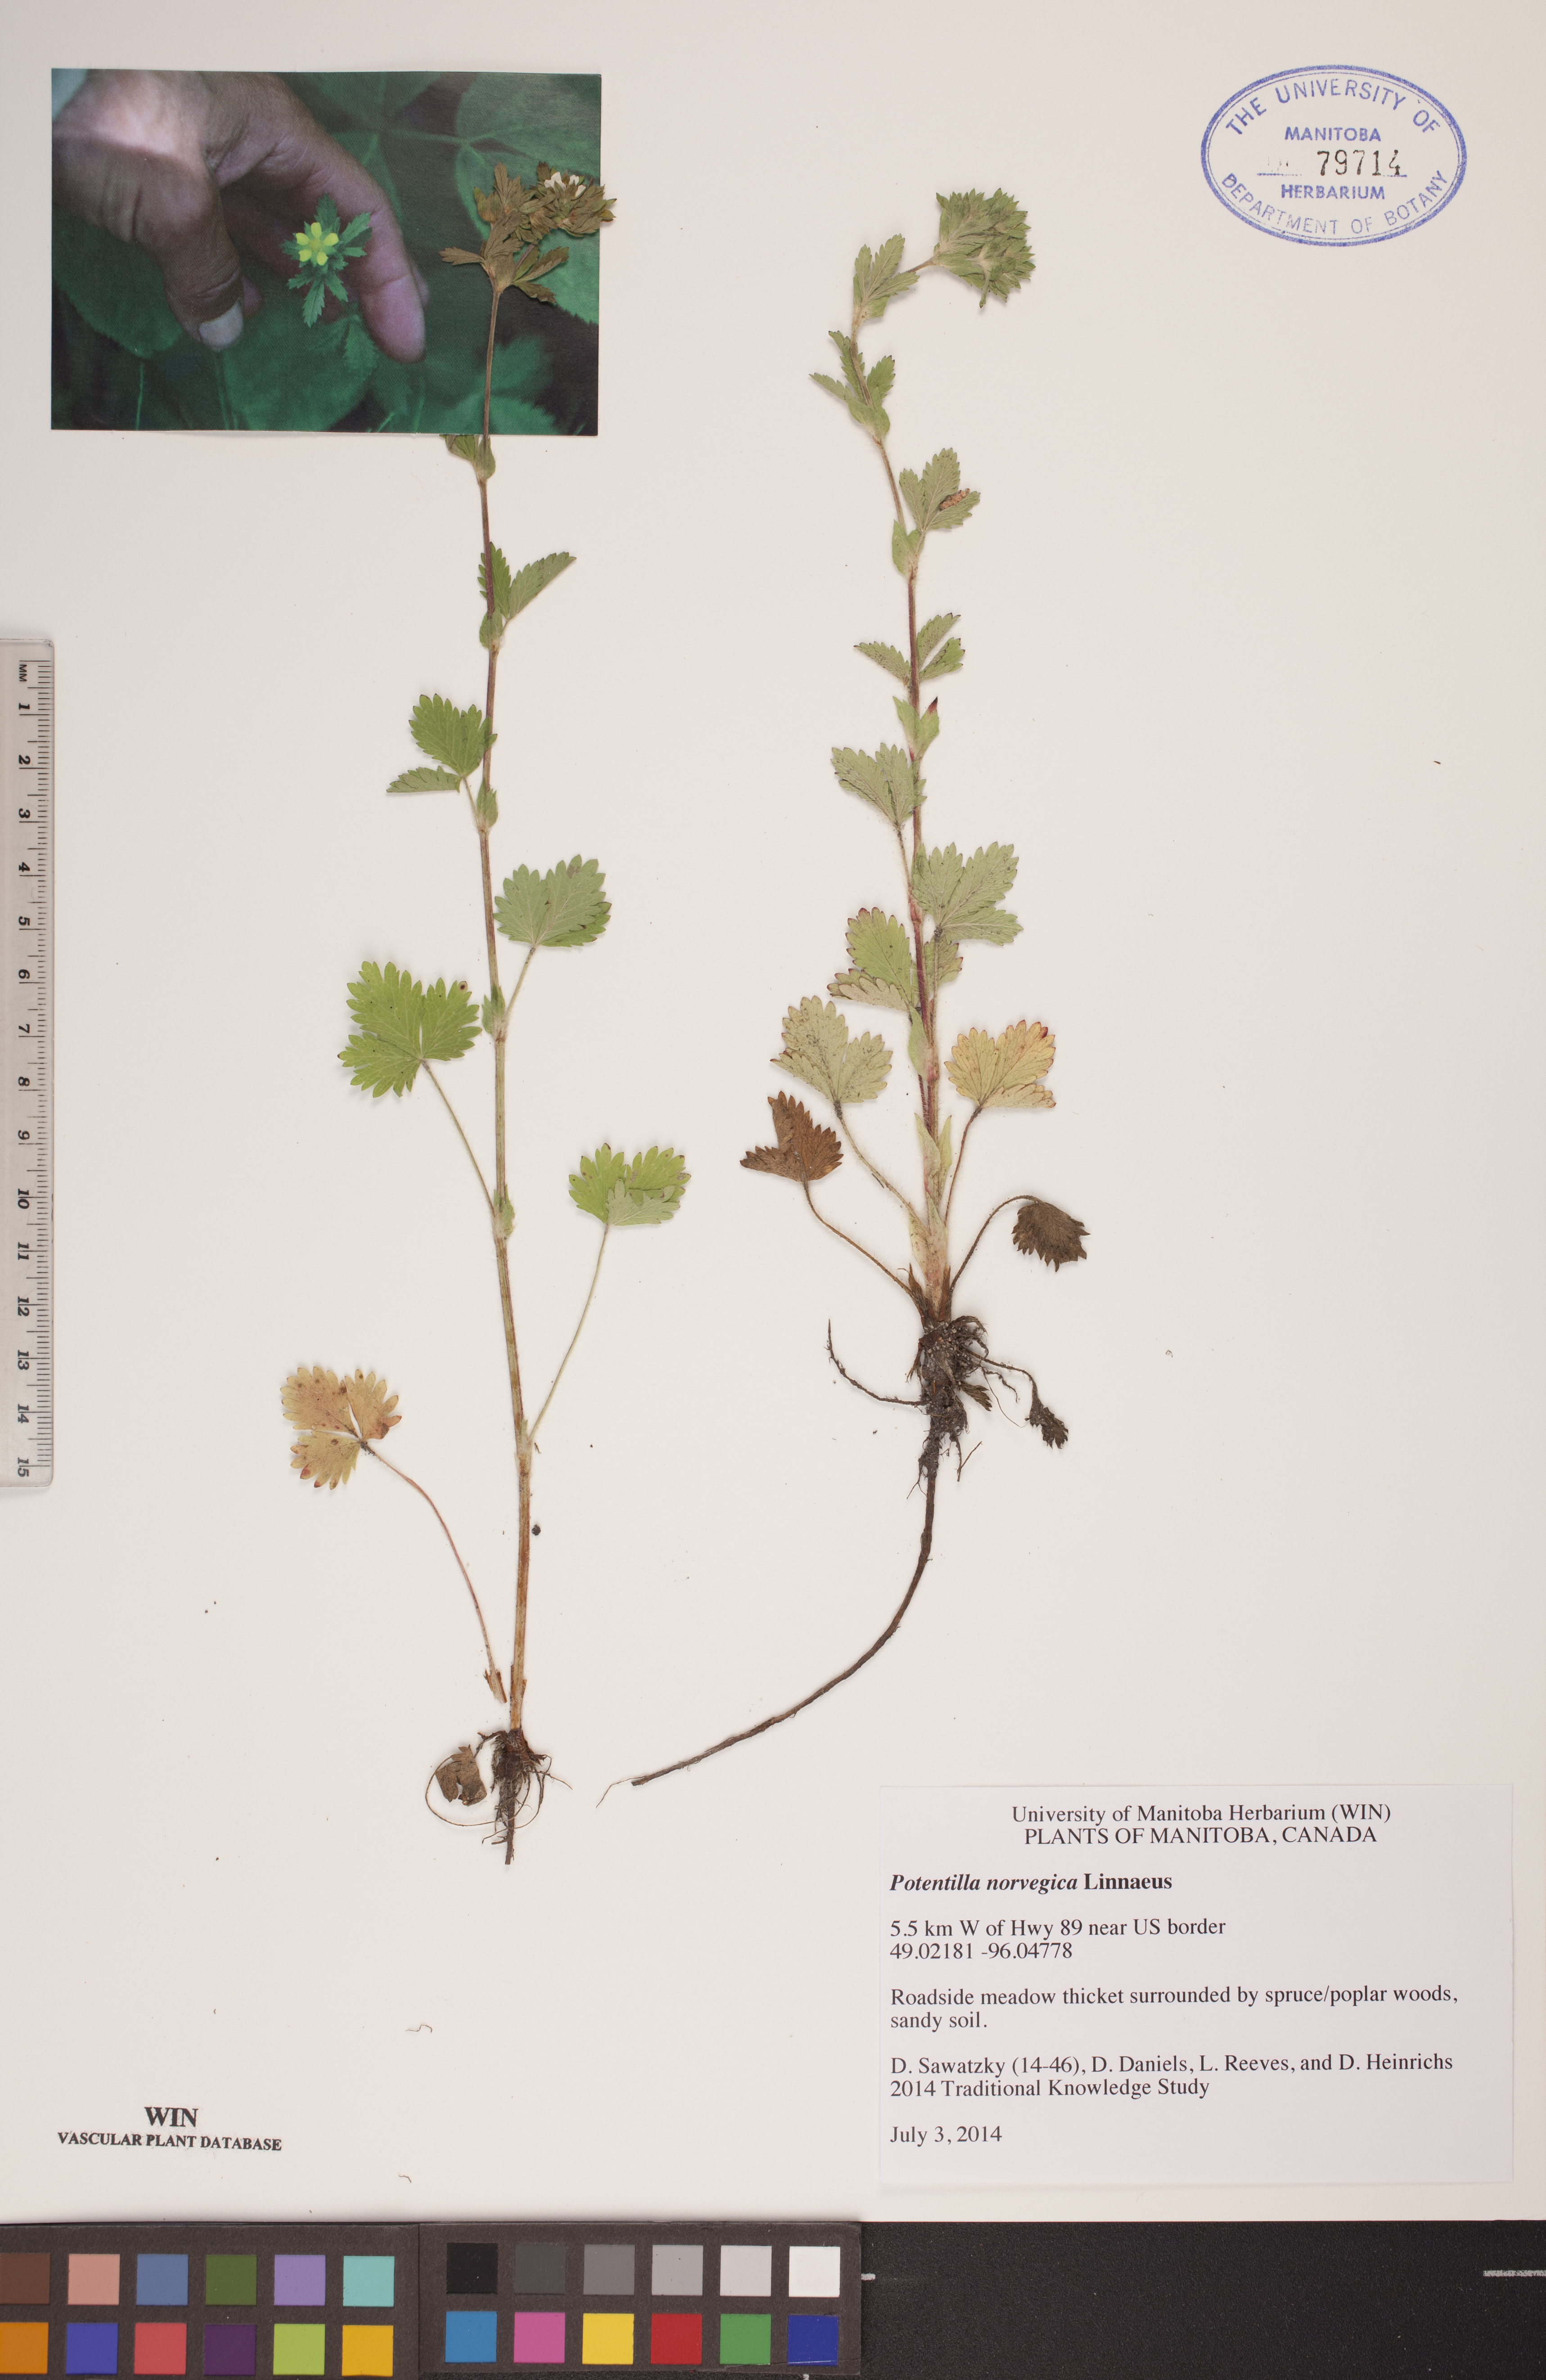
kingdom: Plantae
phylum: Tracheophyta
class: Magnoliopsida
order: Rosales
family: Rosaceae
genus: Potentilla
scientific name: Potentilla norvegica
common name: Ternate-leaved cinquefoil
